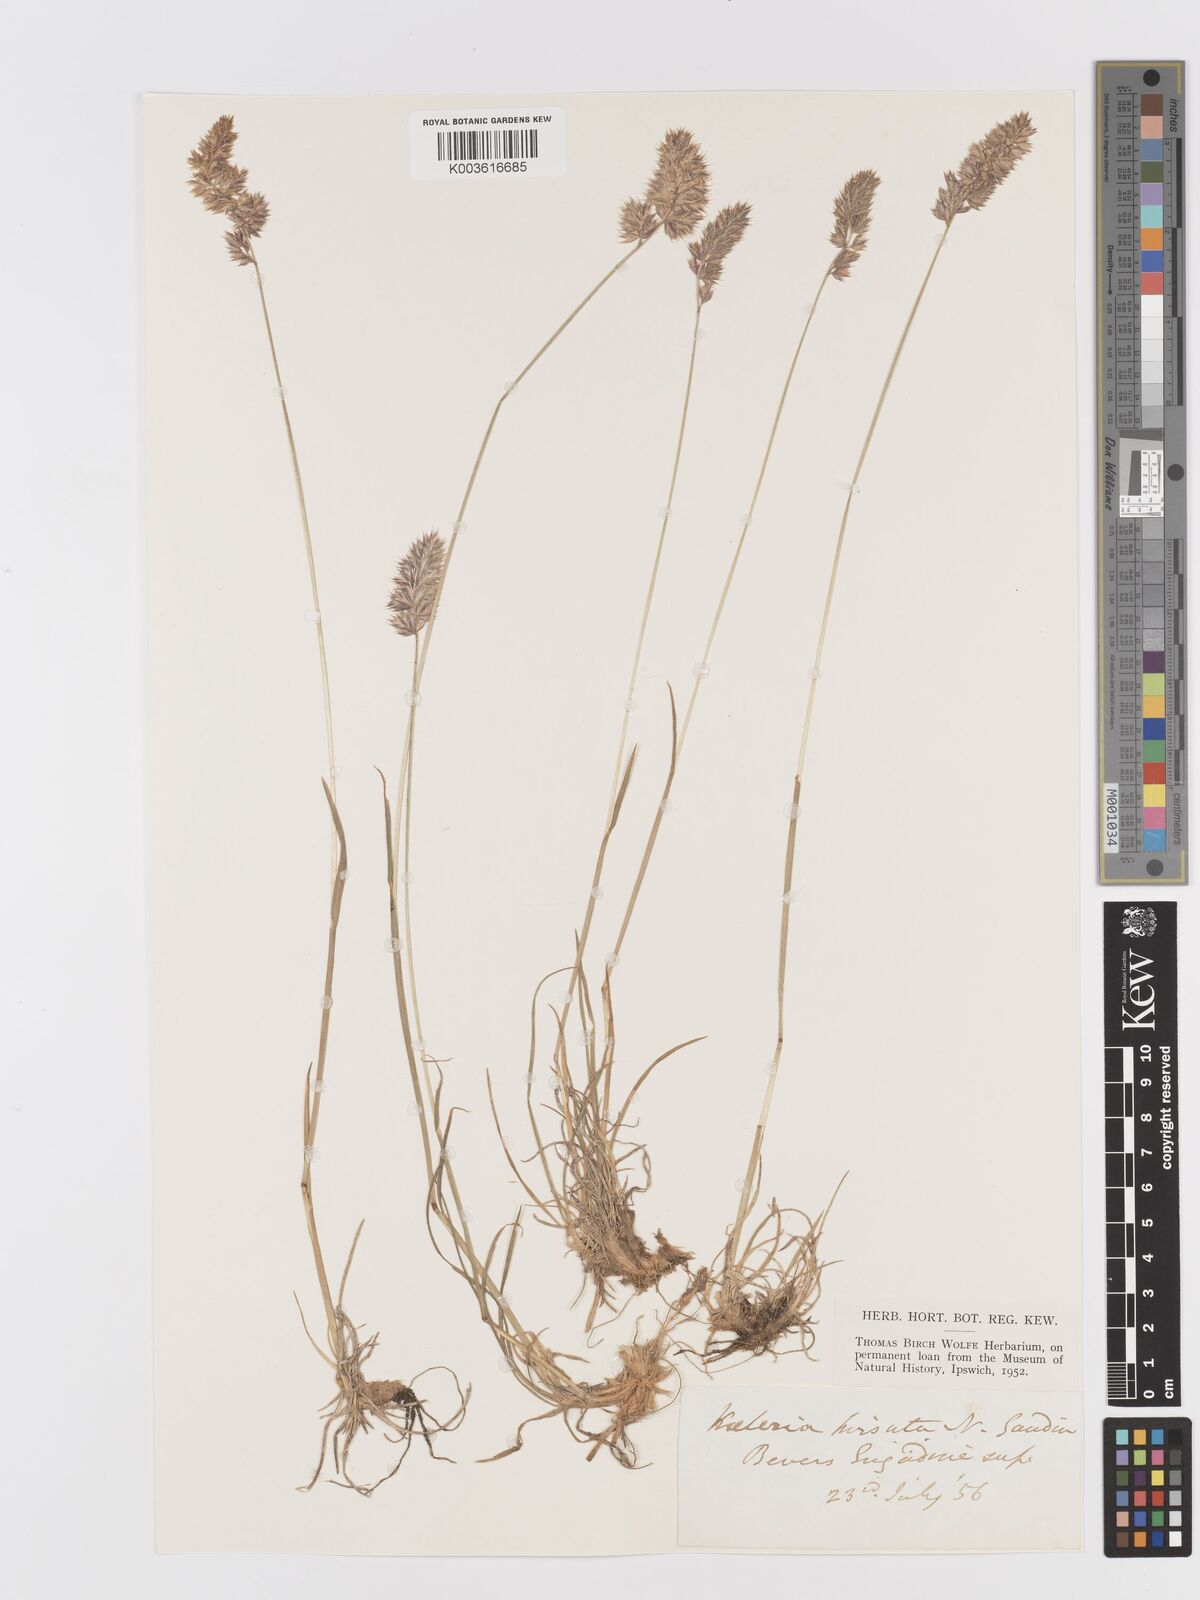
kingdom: Plantae
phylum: Tracheophyta
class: Liliopsida
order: Poales
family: Poaceae
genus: Koeleria
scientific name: Koeleria hirsuta
